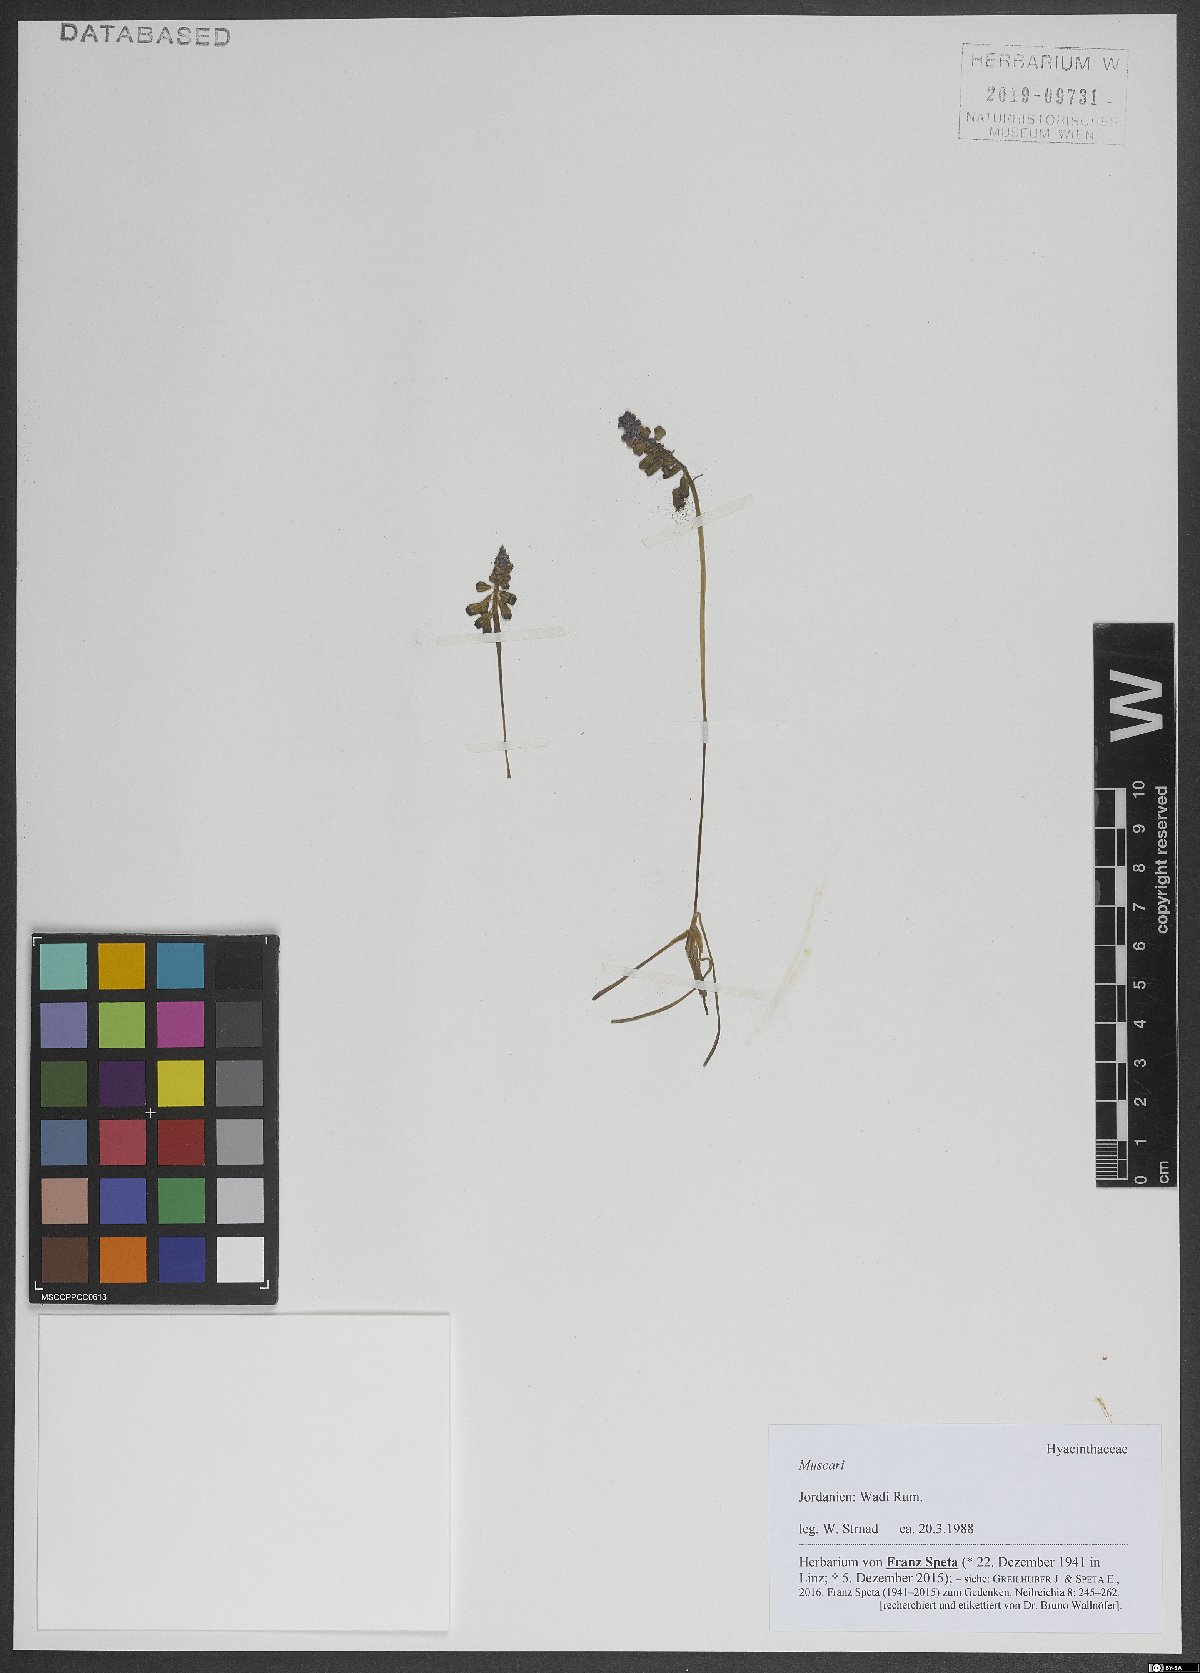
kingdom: Plantae
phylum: Tracheophyta
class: Liliopsida
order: Asparagales
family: Asparagaceae
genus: Muscari
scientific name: Muscari
